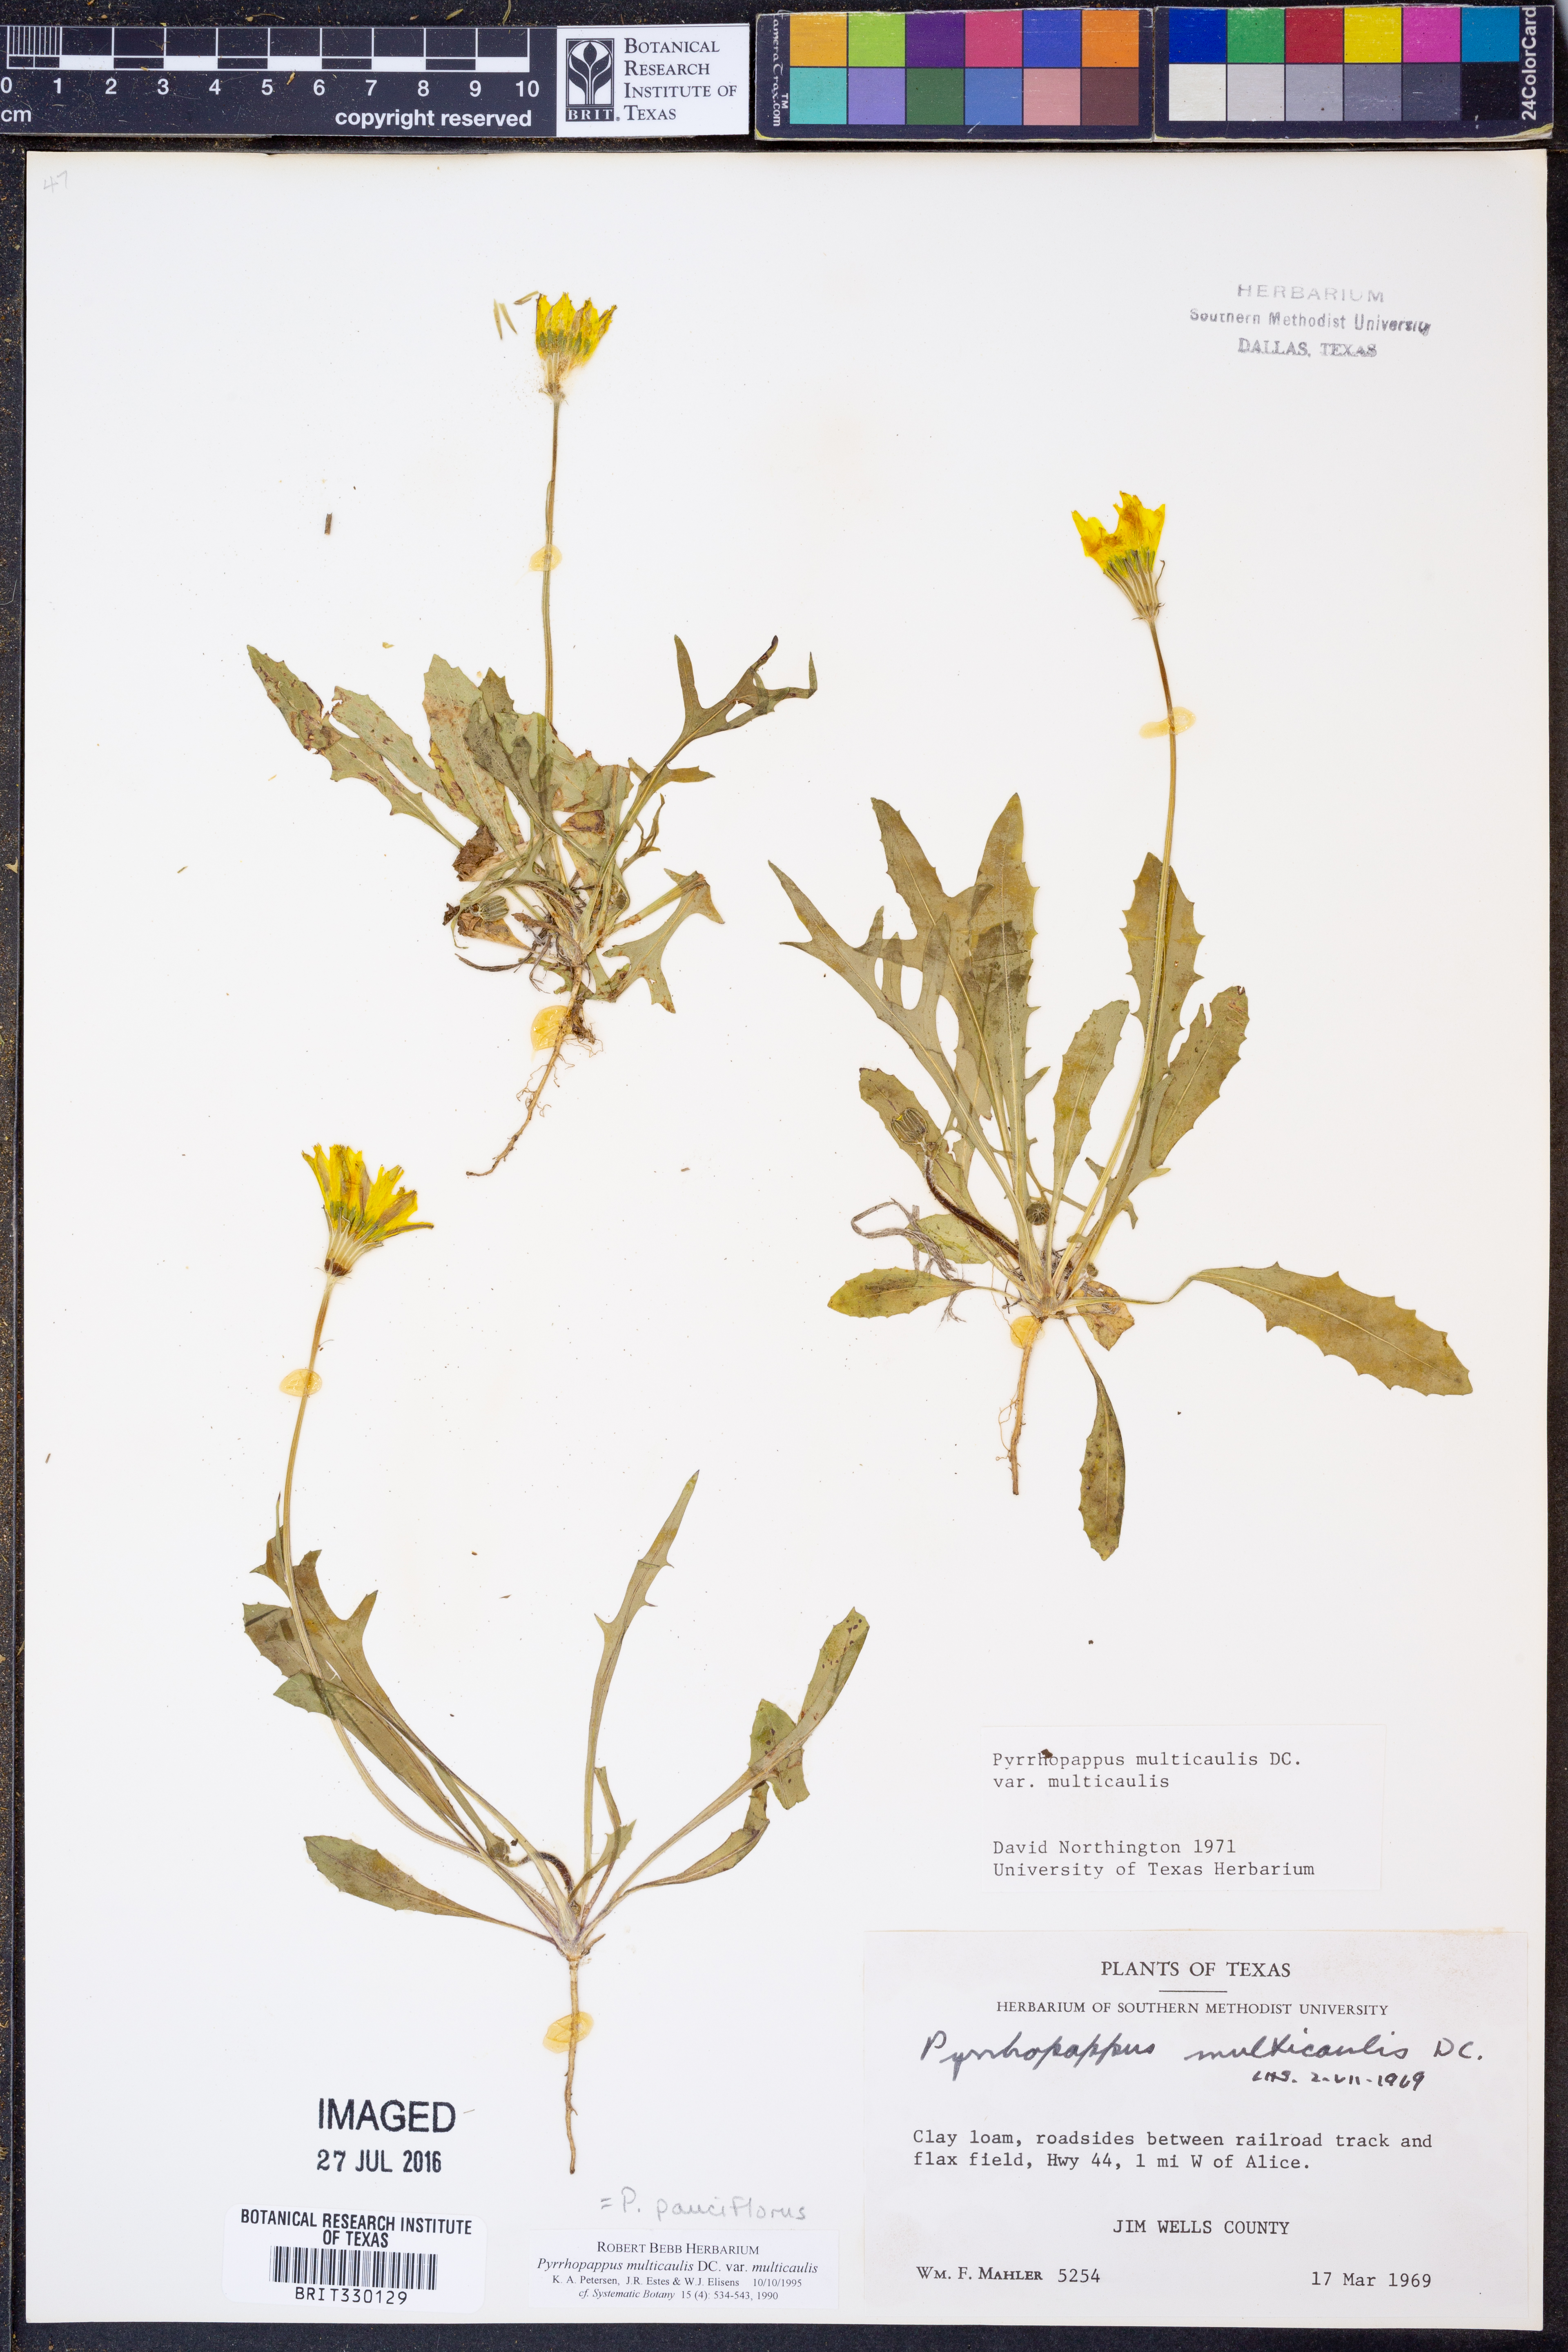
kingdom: Plantae
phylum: Tracheophyta
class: Magnoliopsida
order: Asterales
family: Asteraceae
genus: Pyrrhopappus
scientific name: Pyrrhopappus pauciflorus
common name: Texas false dandelion
